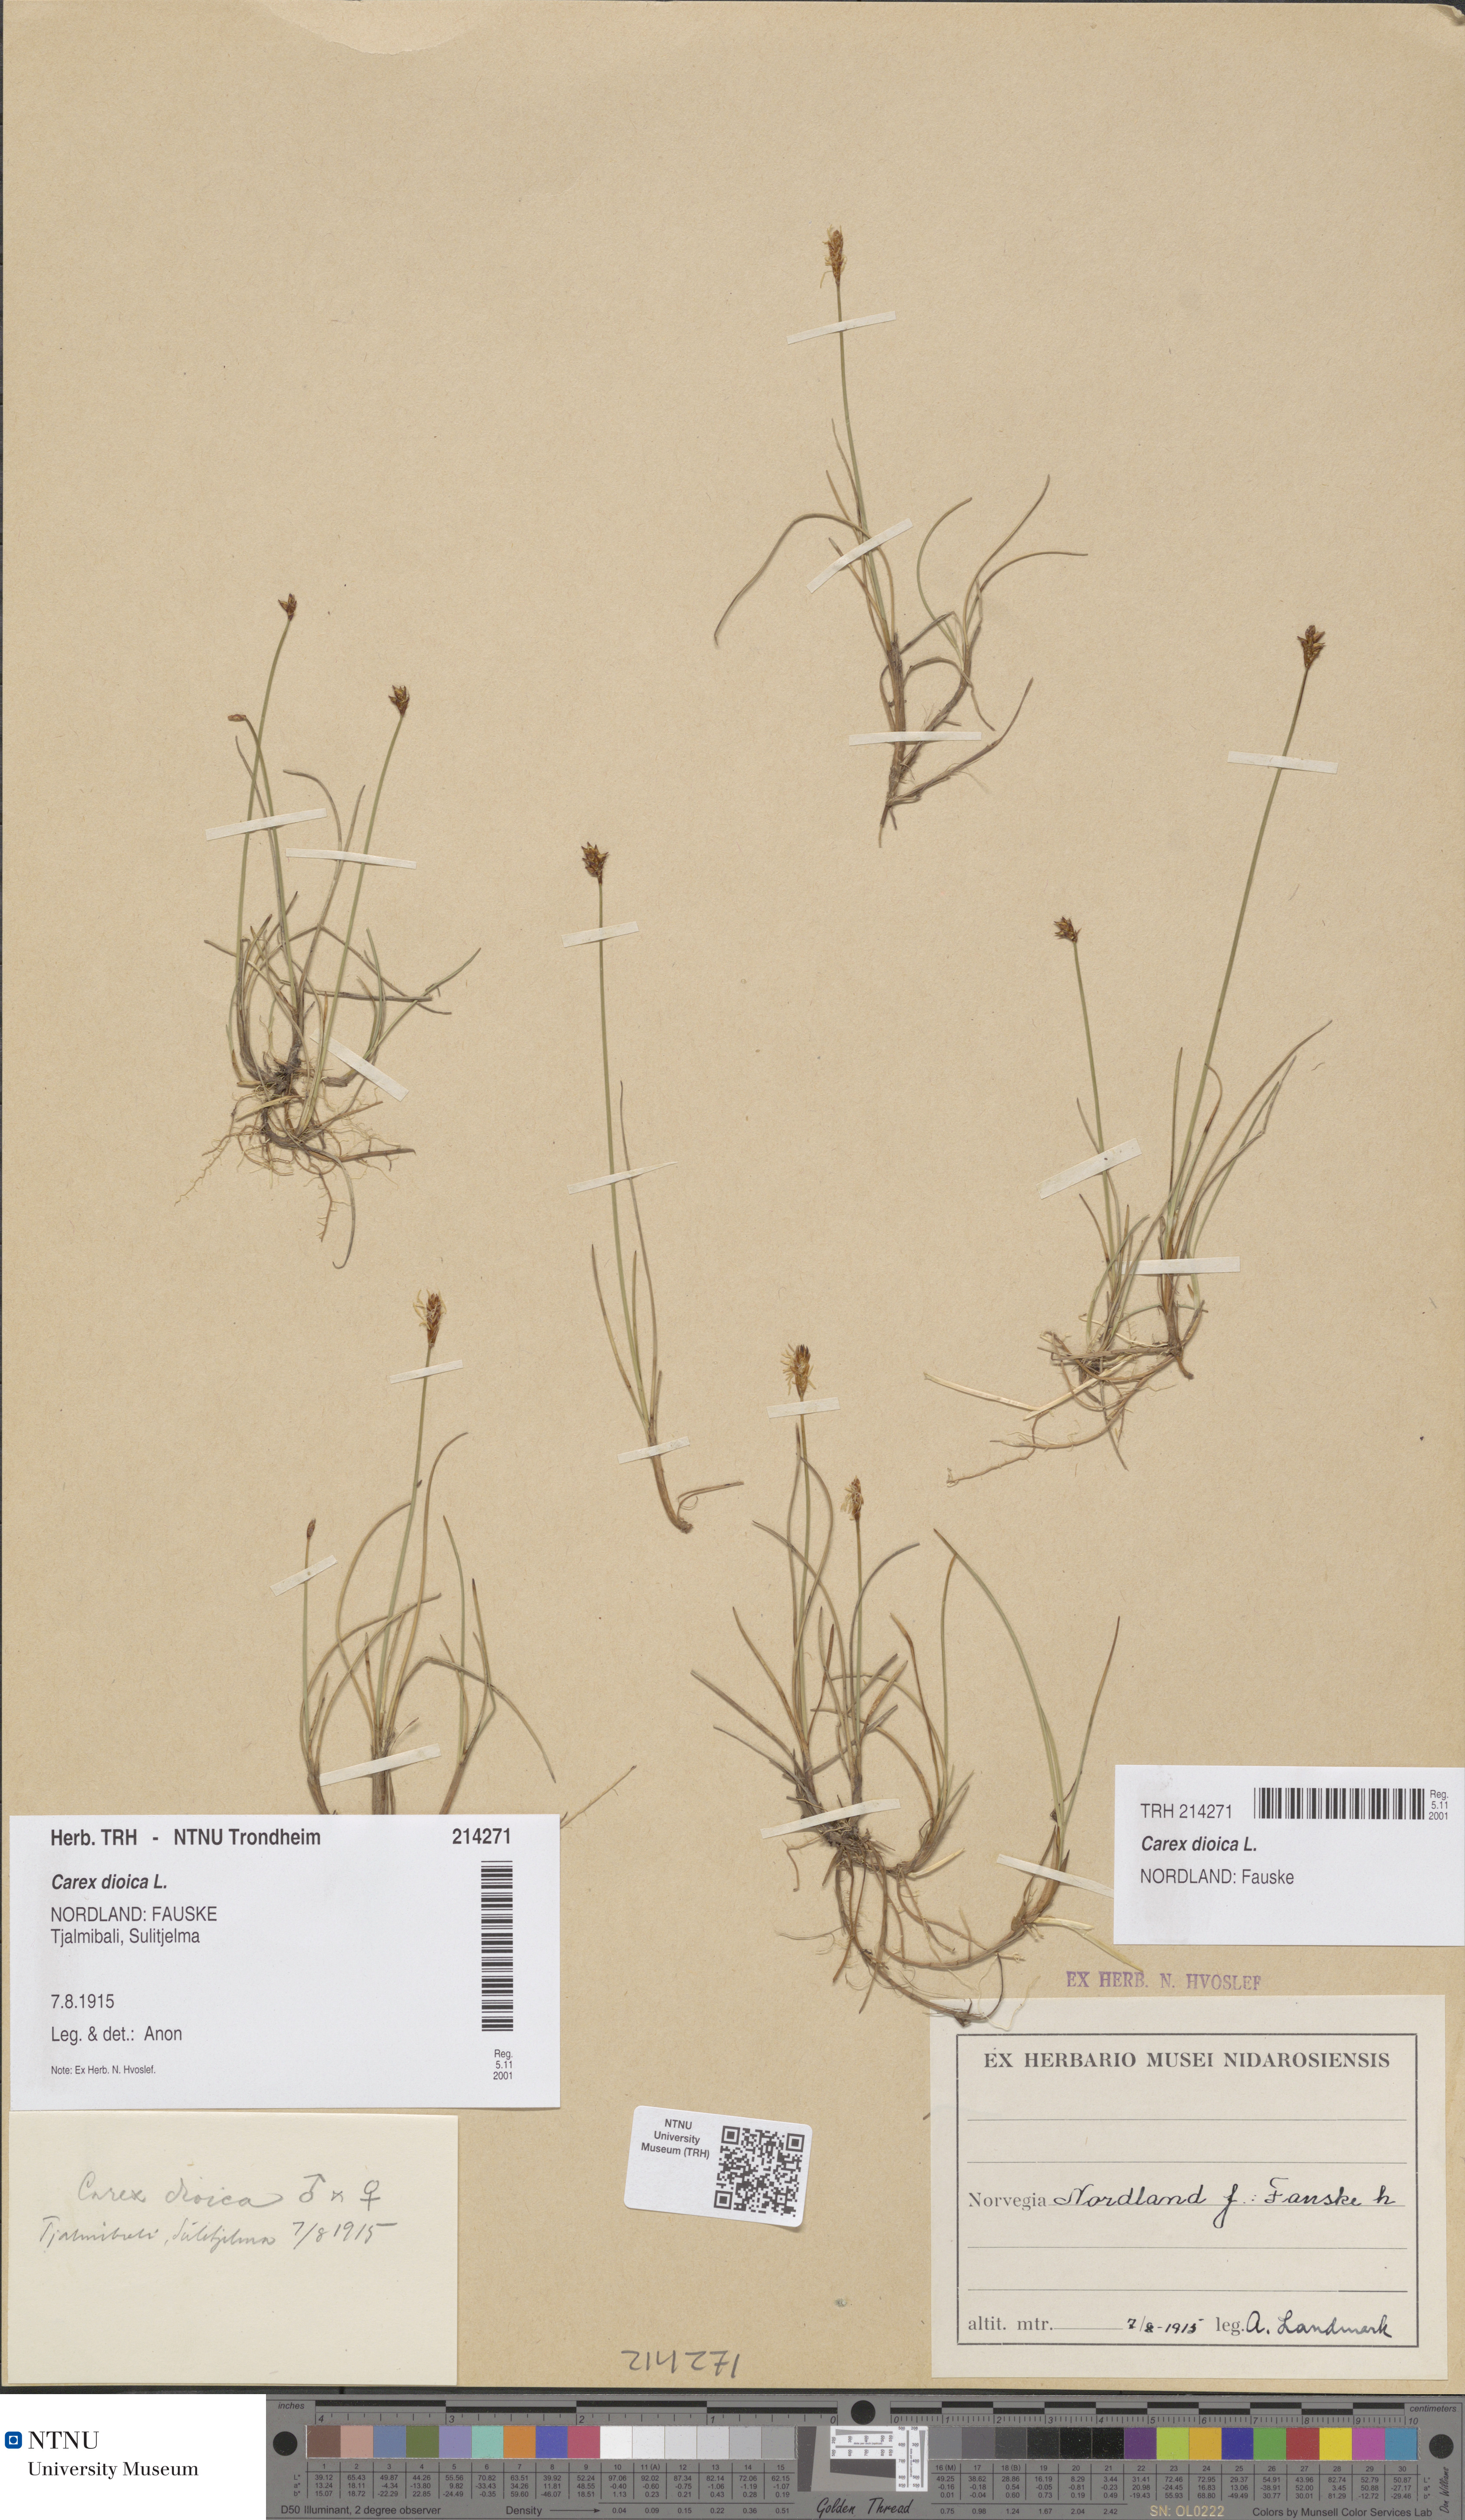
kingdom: Plantae
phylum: Tracheophyta
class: Liliopsida
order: Poales
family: Cyperaceae
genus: Carex
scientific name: Carex dioica
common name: Dioecious sedge
